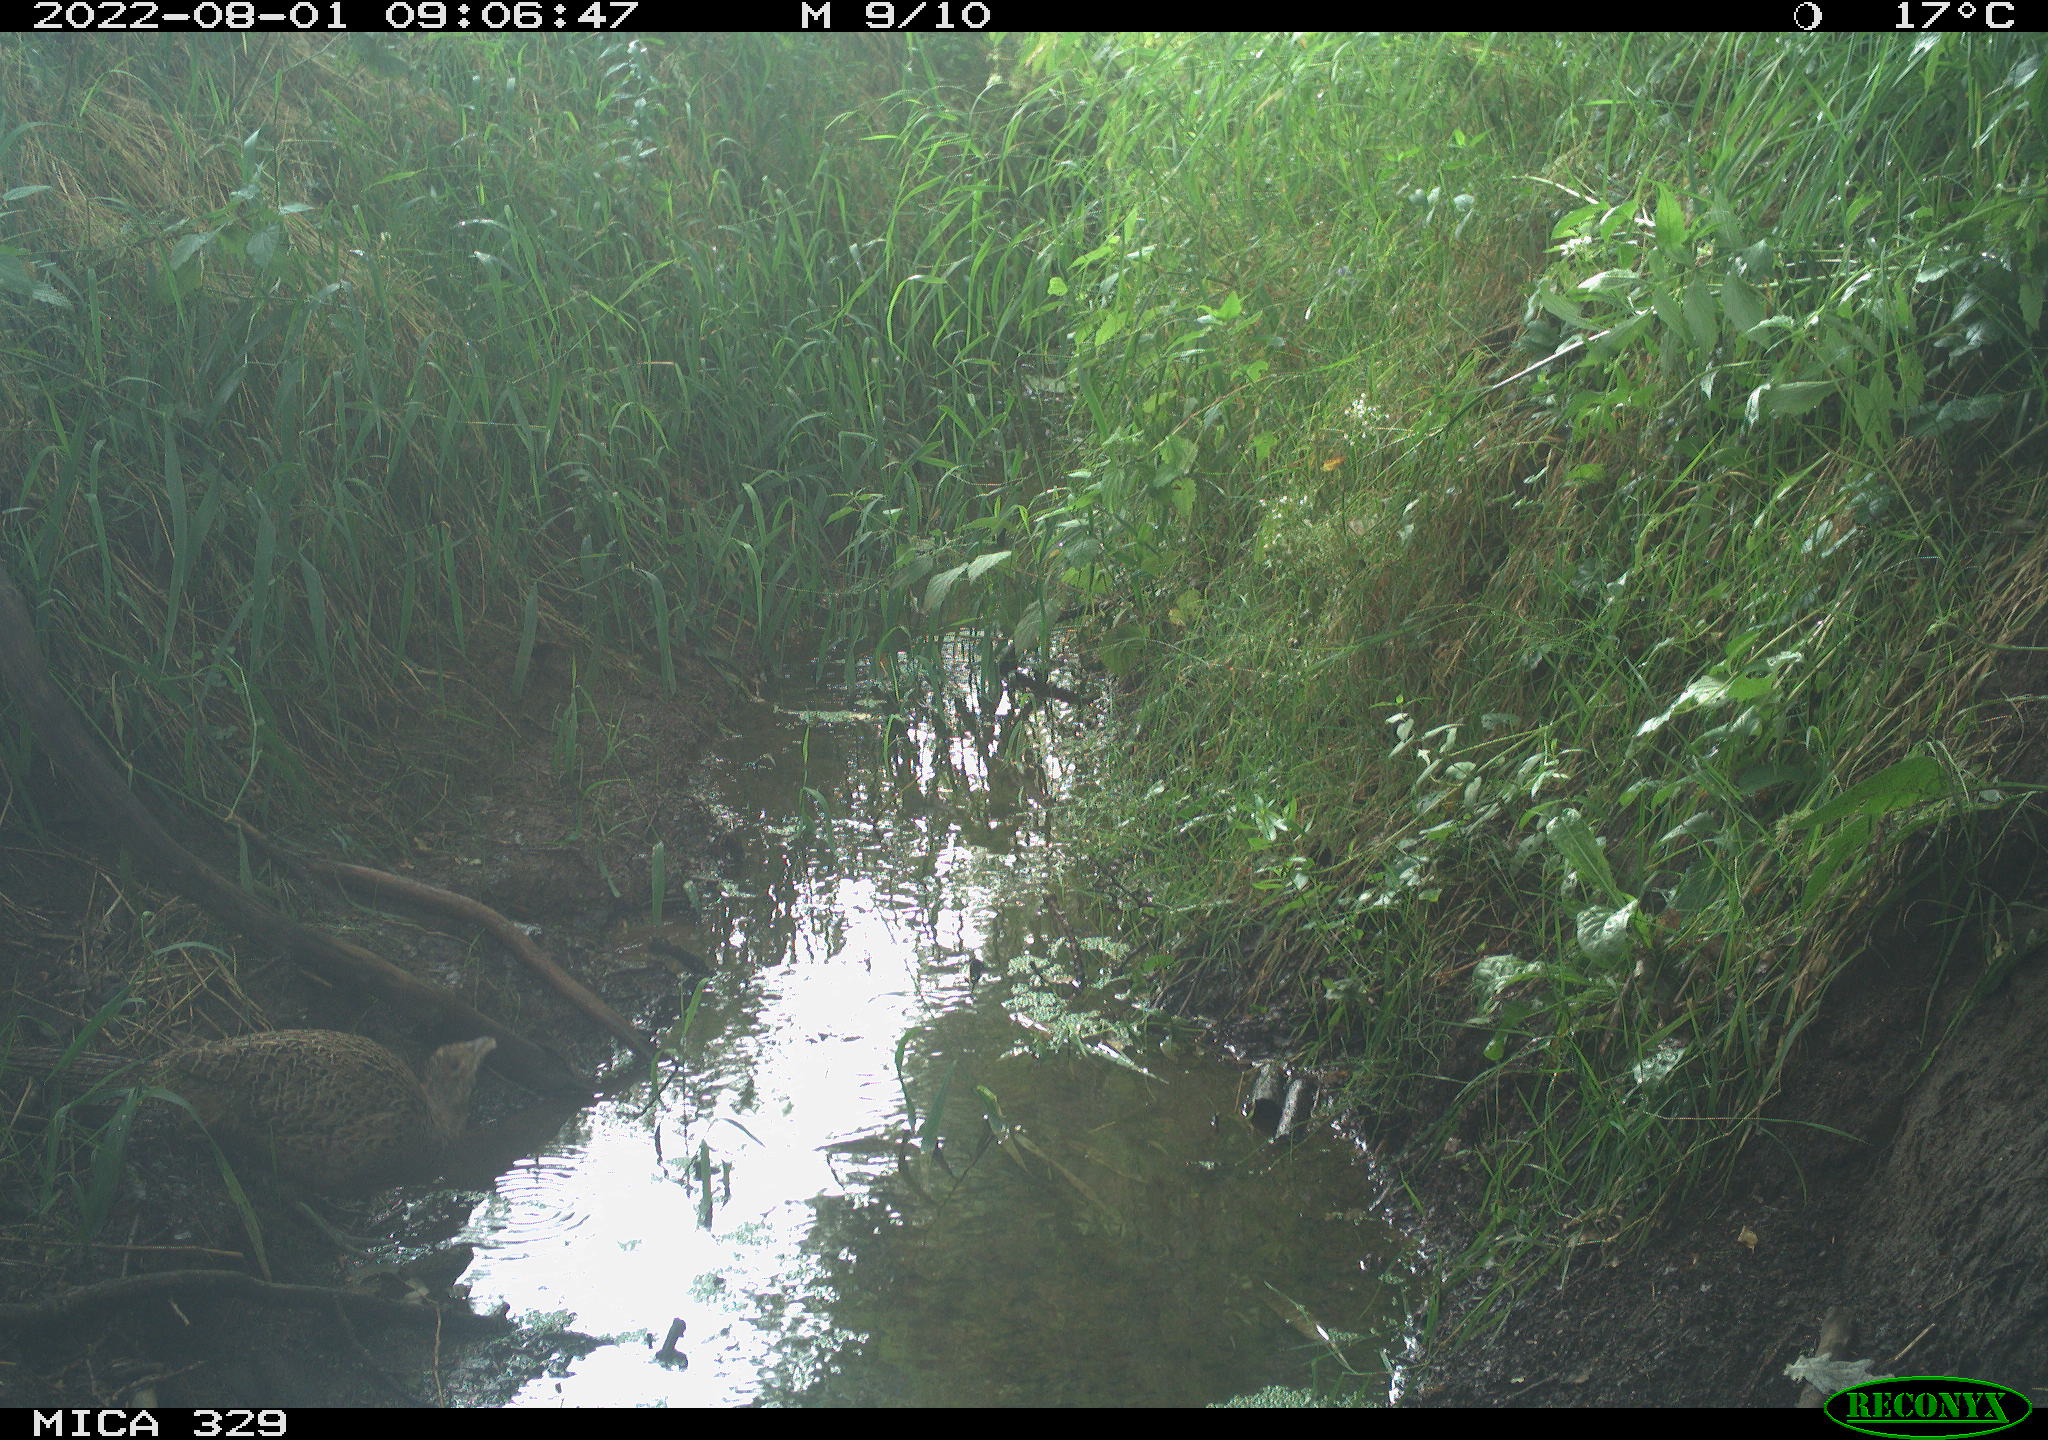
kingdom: Animalia
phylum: Chordata
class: Aves
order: Galliformes
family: Phasianidae
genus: Phasianus
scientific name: Phasianus colchicus
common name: Common pheasant
